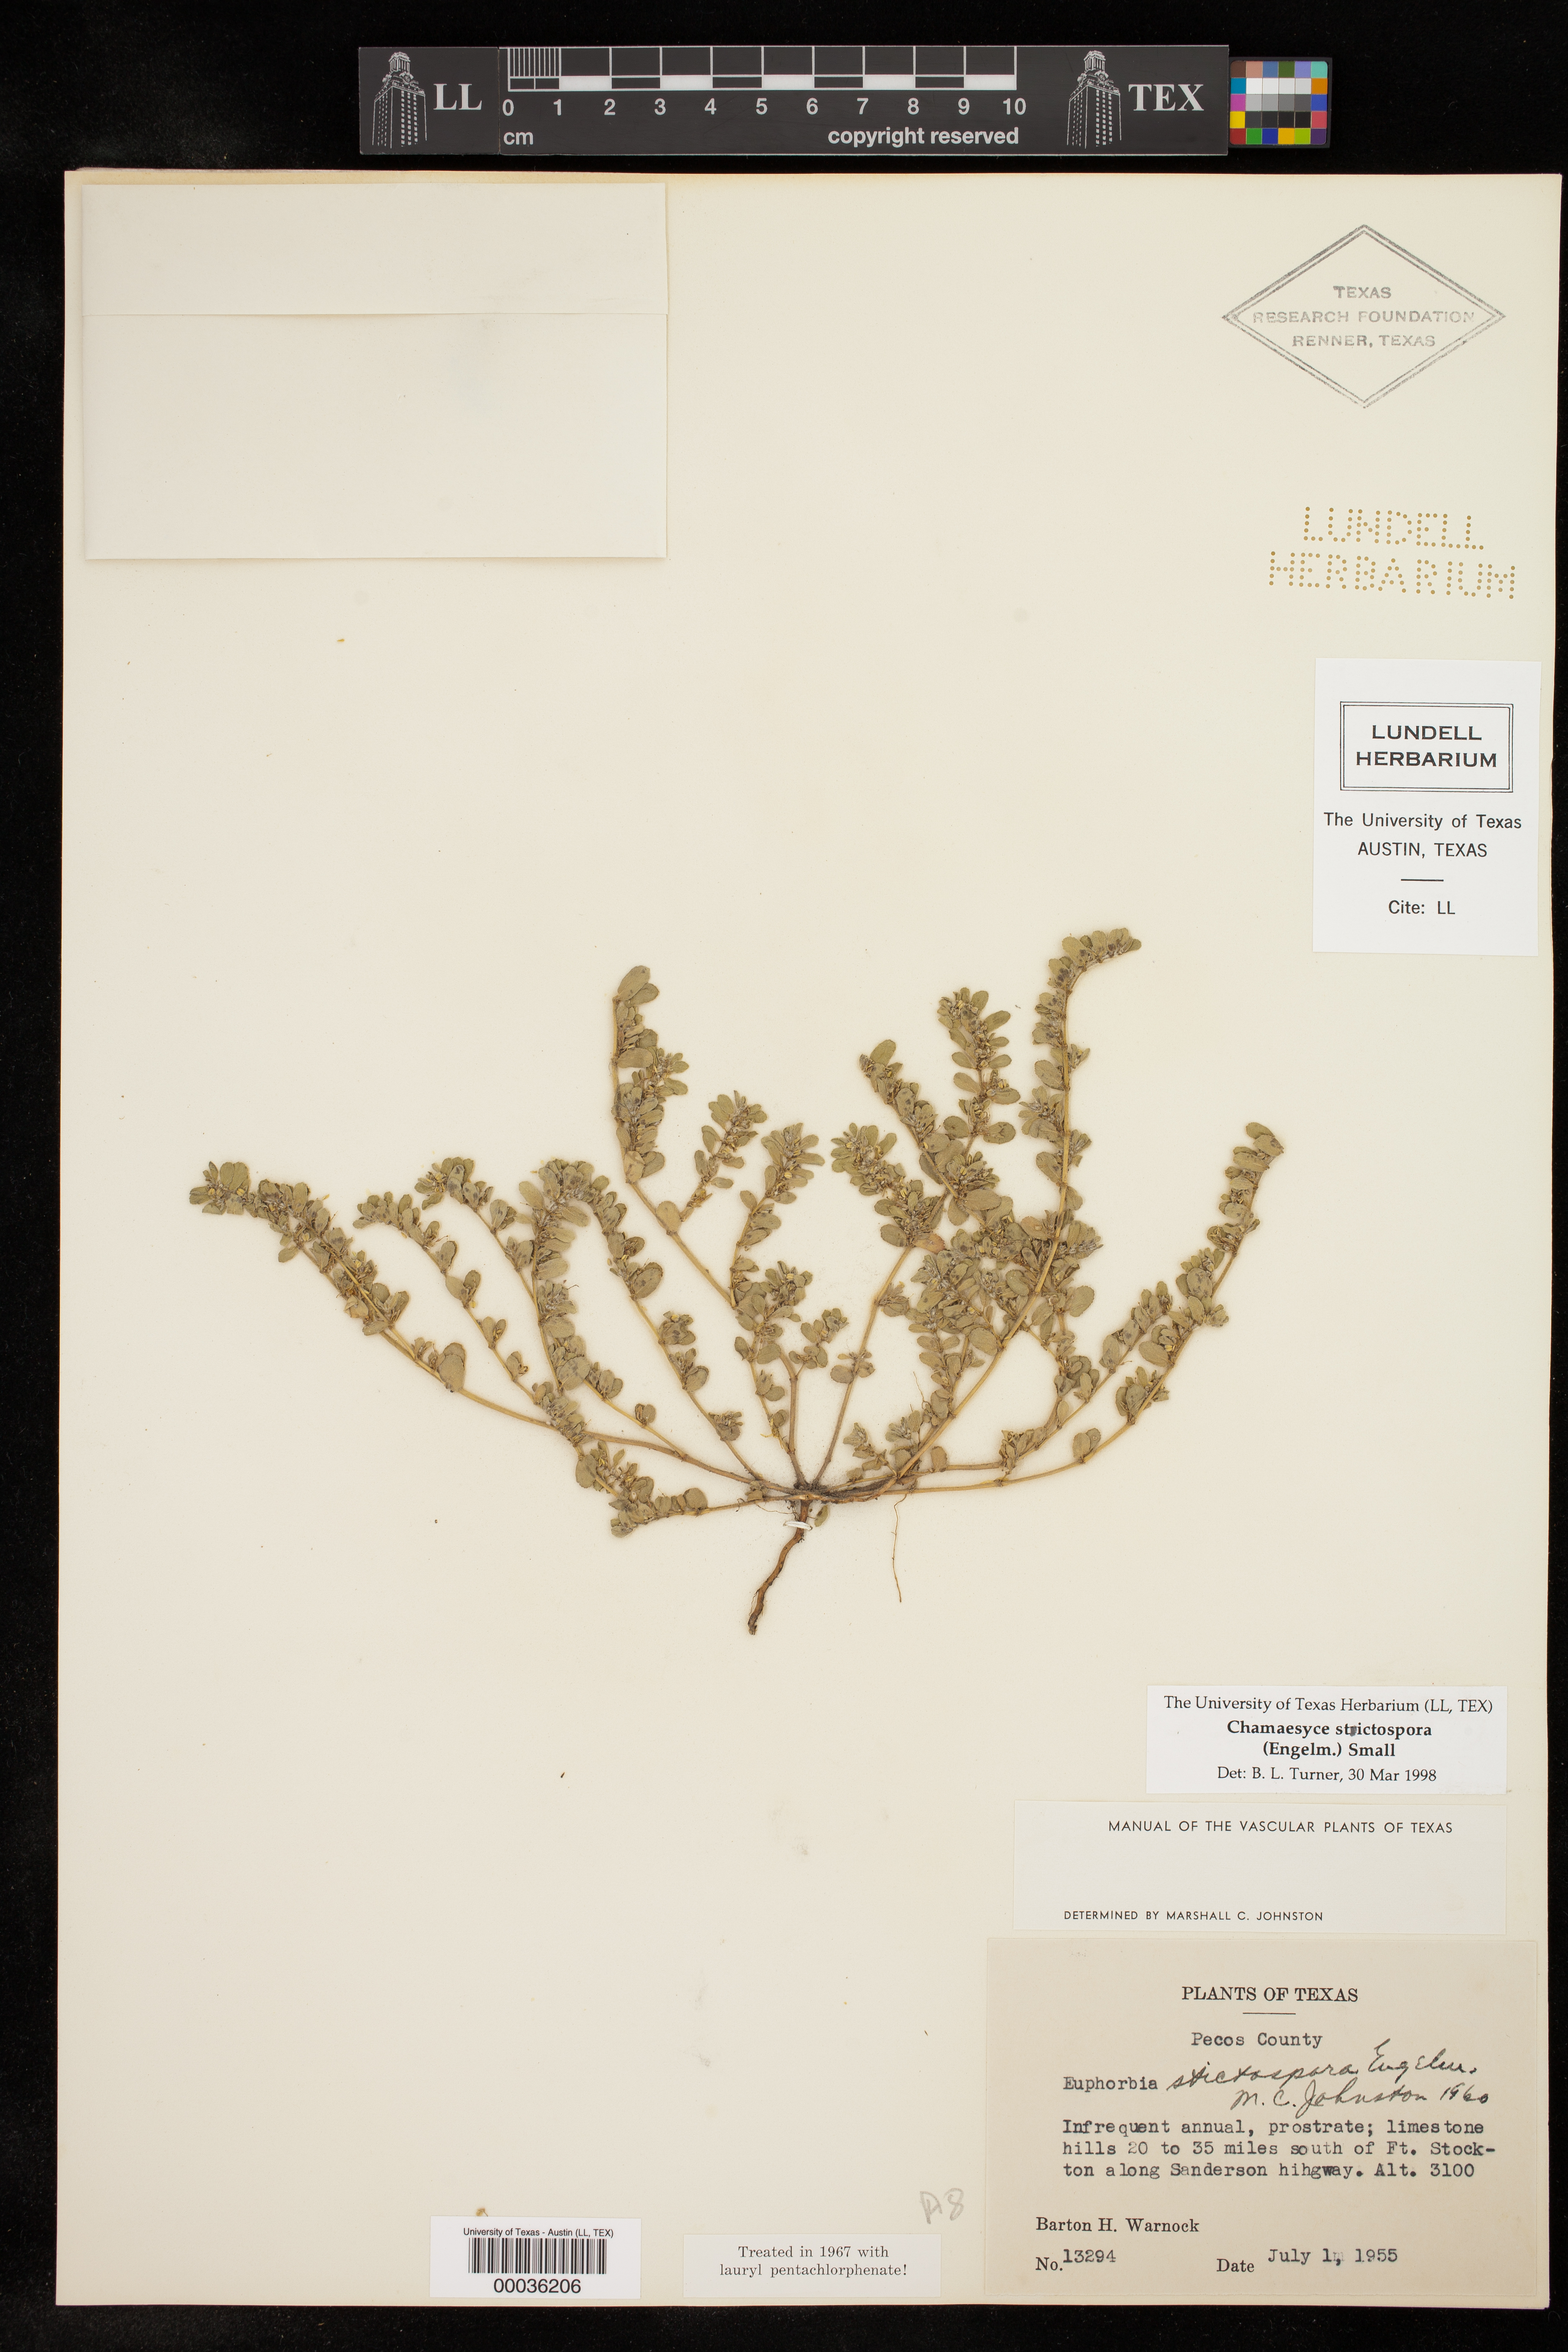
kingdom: Plantae
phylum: Tracheophyta
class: Magnoliopsida
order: Malpighiales
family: Euphorbiaceae
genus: Euphorbia
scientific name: Euphorbia stictospora
